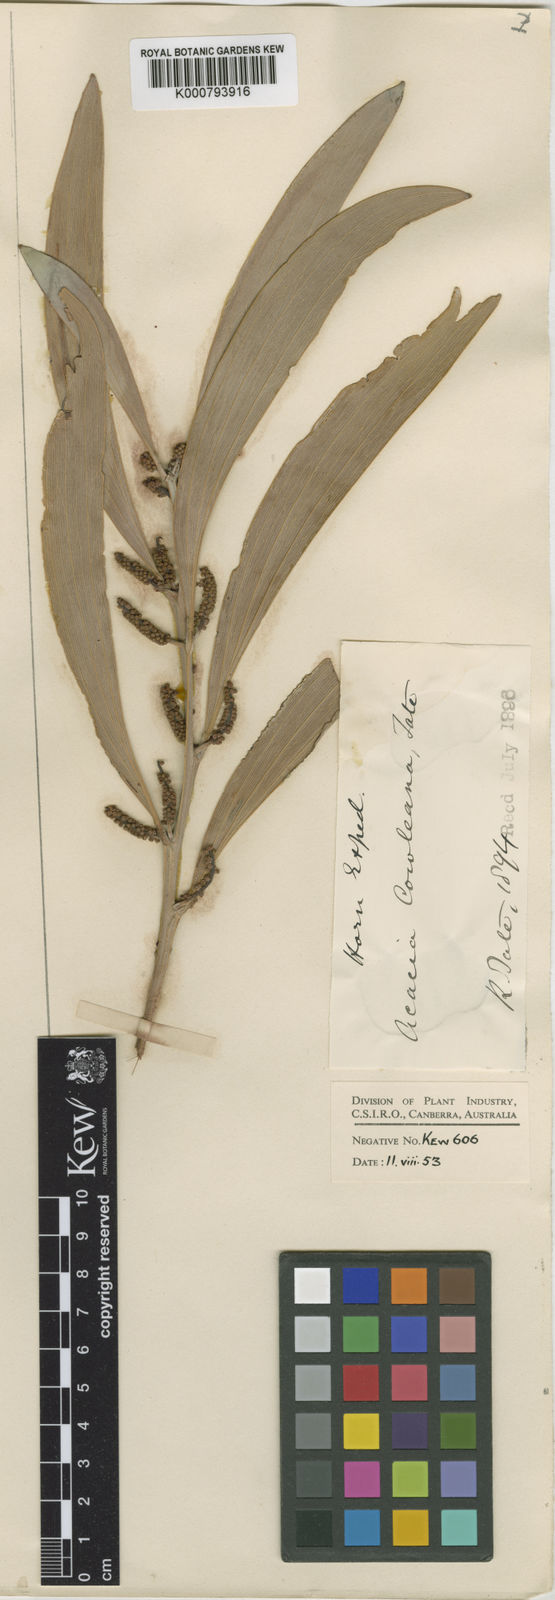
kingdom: Plantae
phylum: Tracheophyta
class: Magnoliopsida
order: Fabales
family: Fabaceae
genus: Acacia
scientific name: Acacia cowleana
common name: Halls creek wattle
